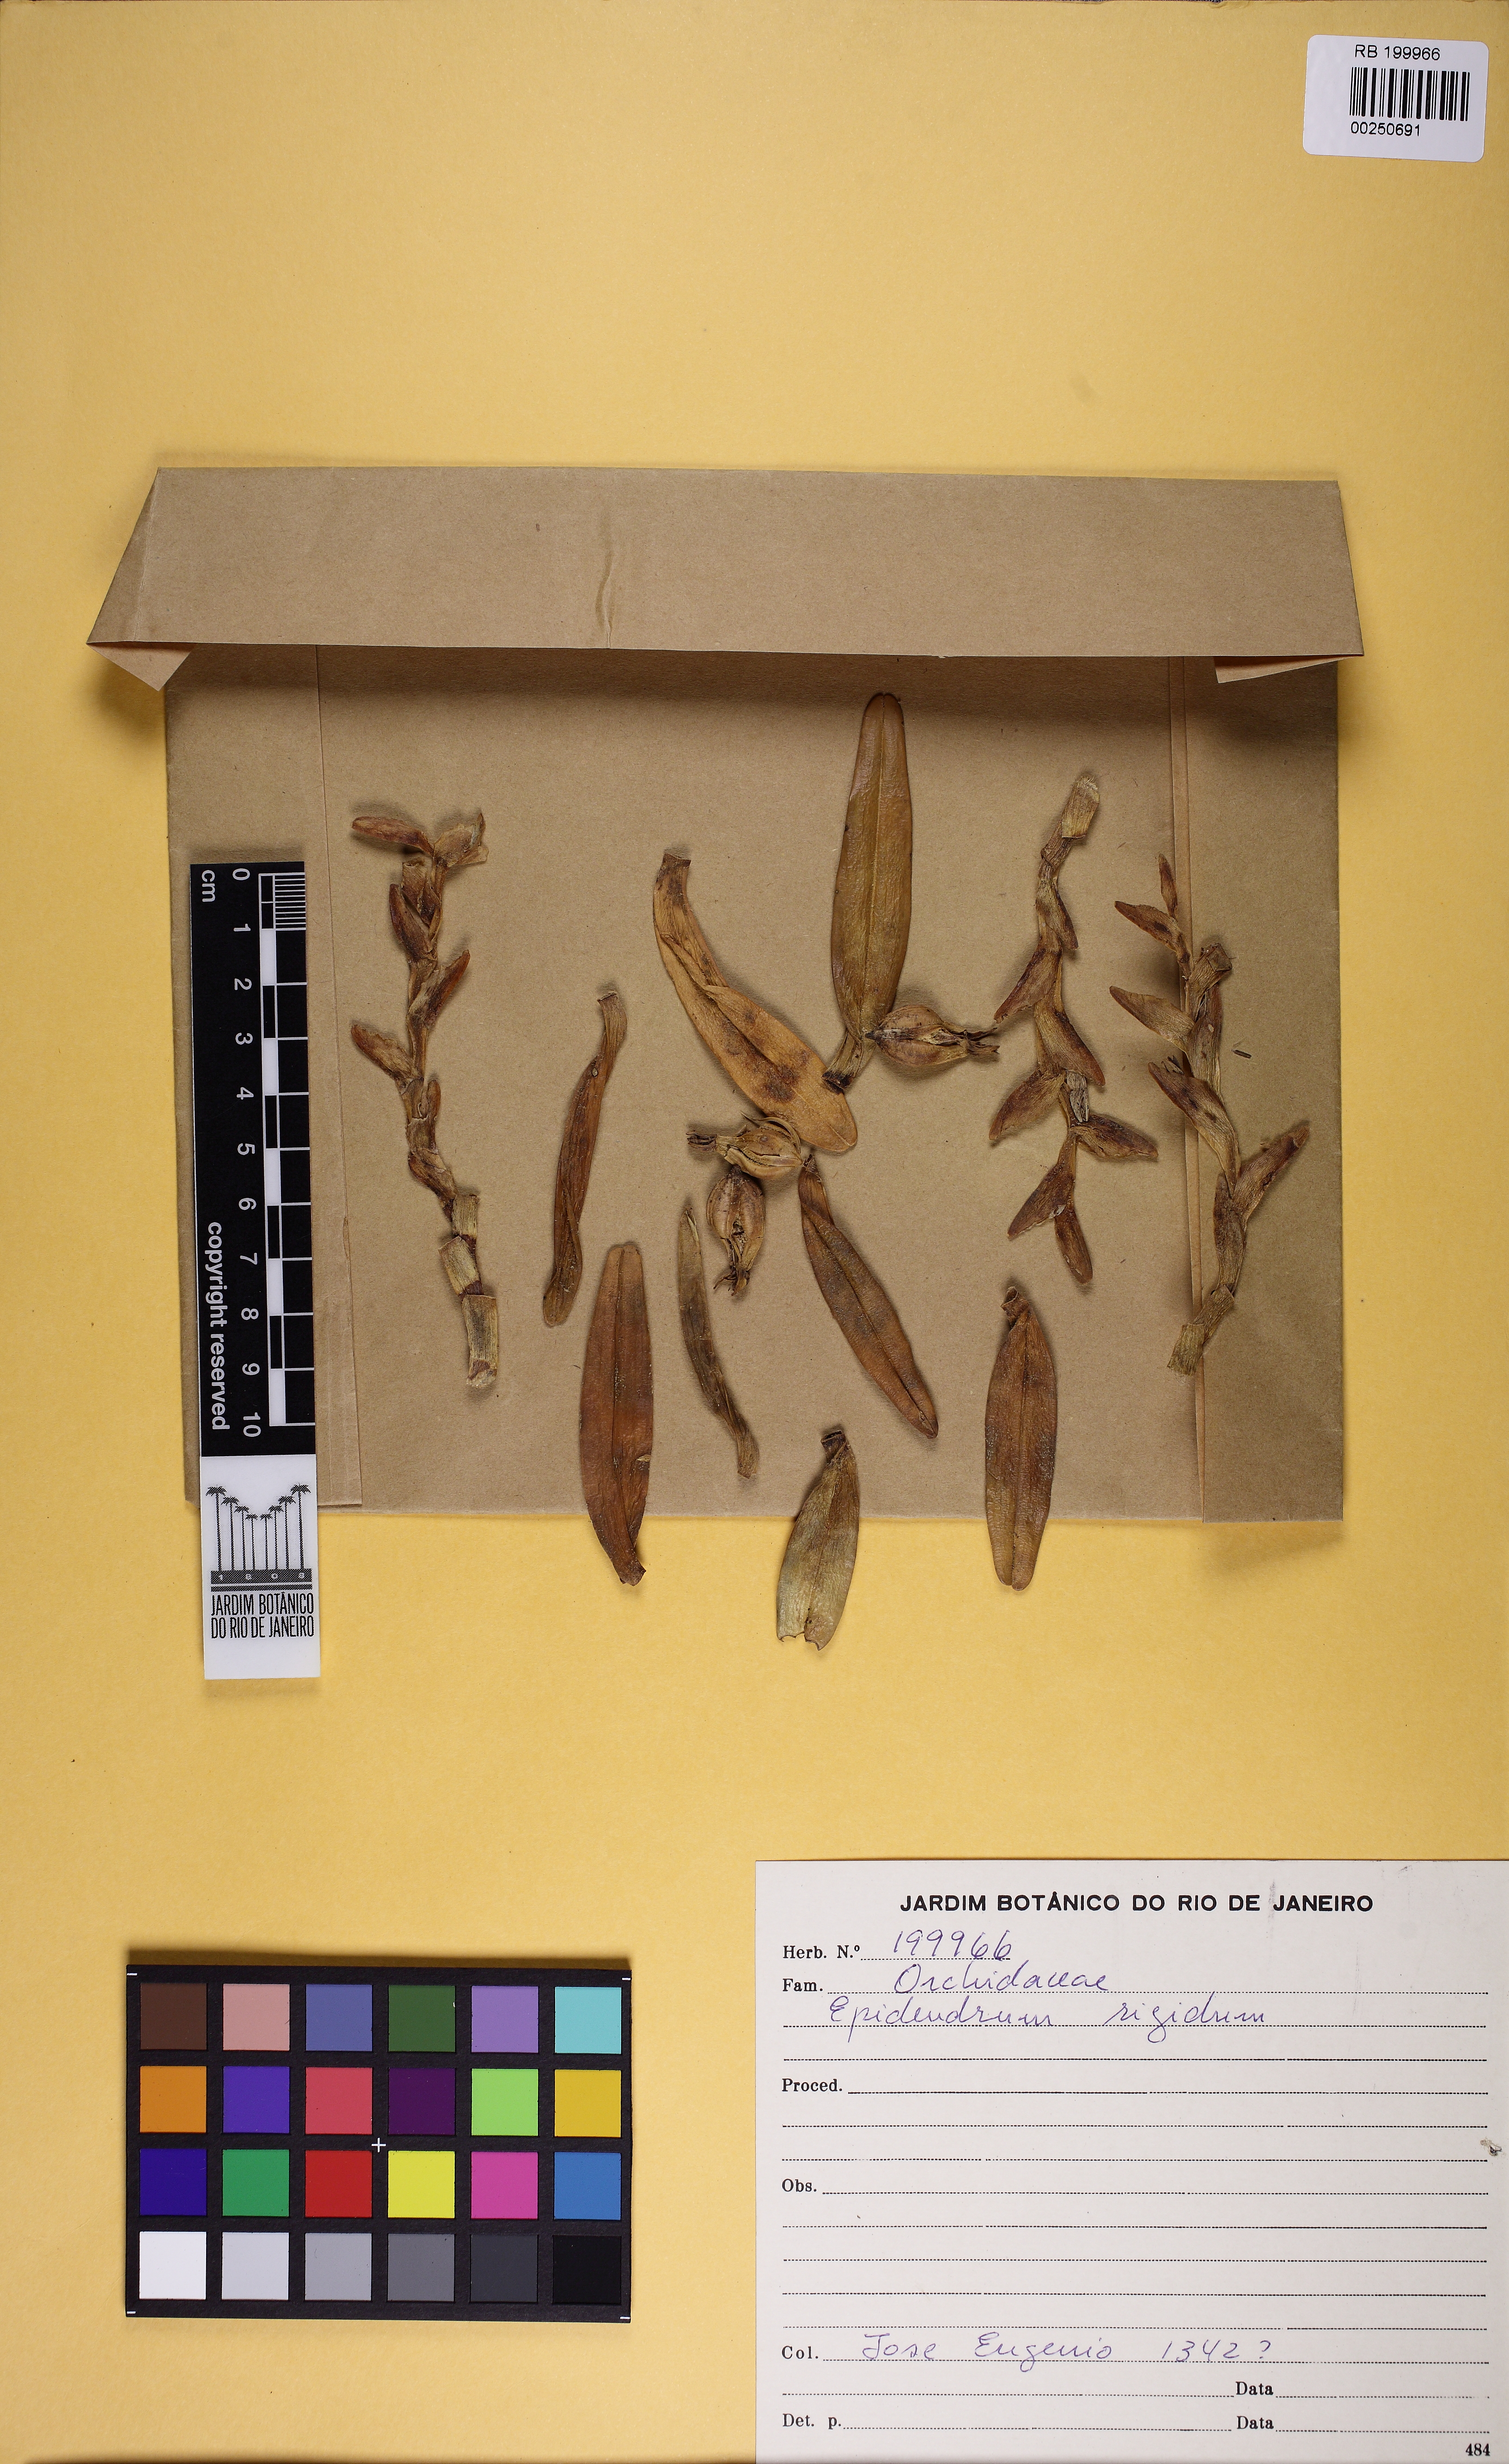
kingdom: Plantae
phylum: Tracheophyta
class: Liliopsida
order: Asparagales
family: Orchidaceae
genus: Epidendrum
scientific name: Epidendrum rigidum
